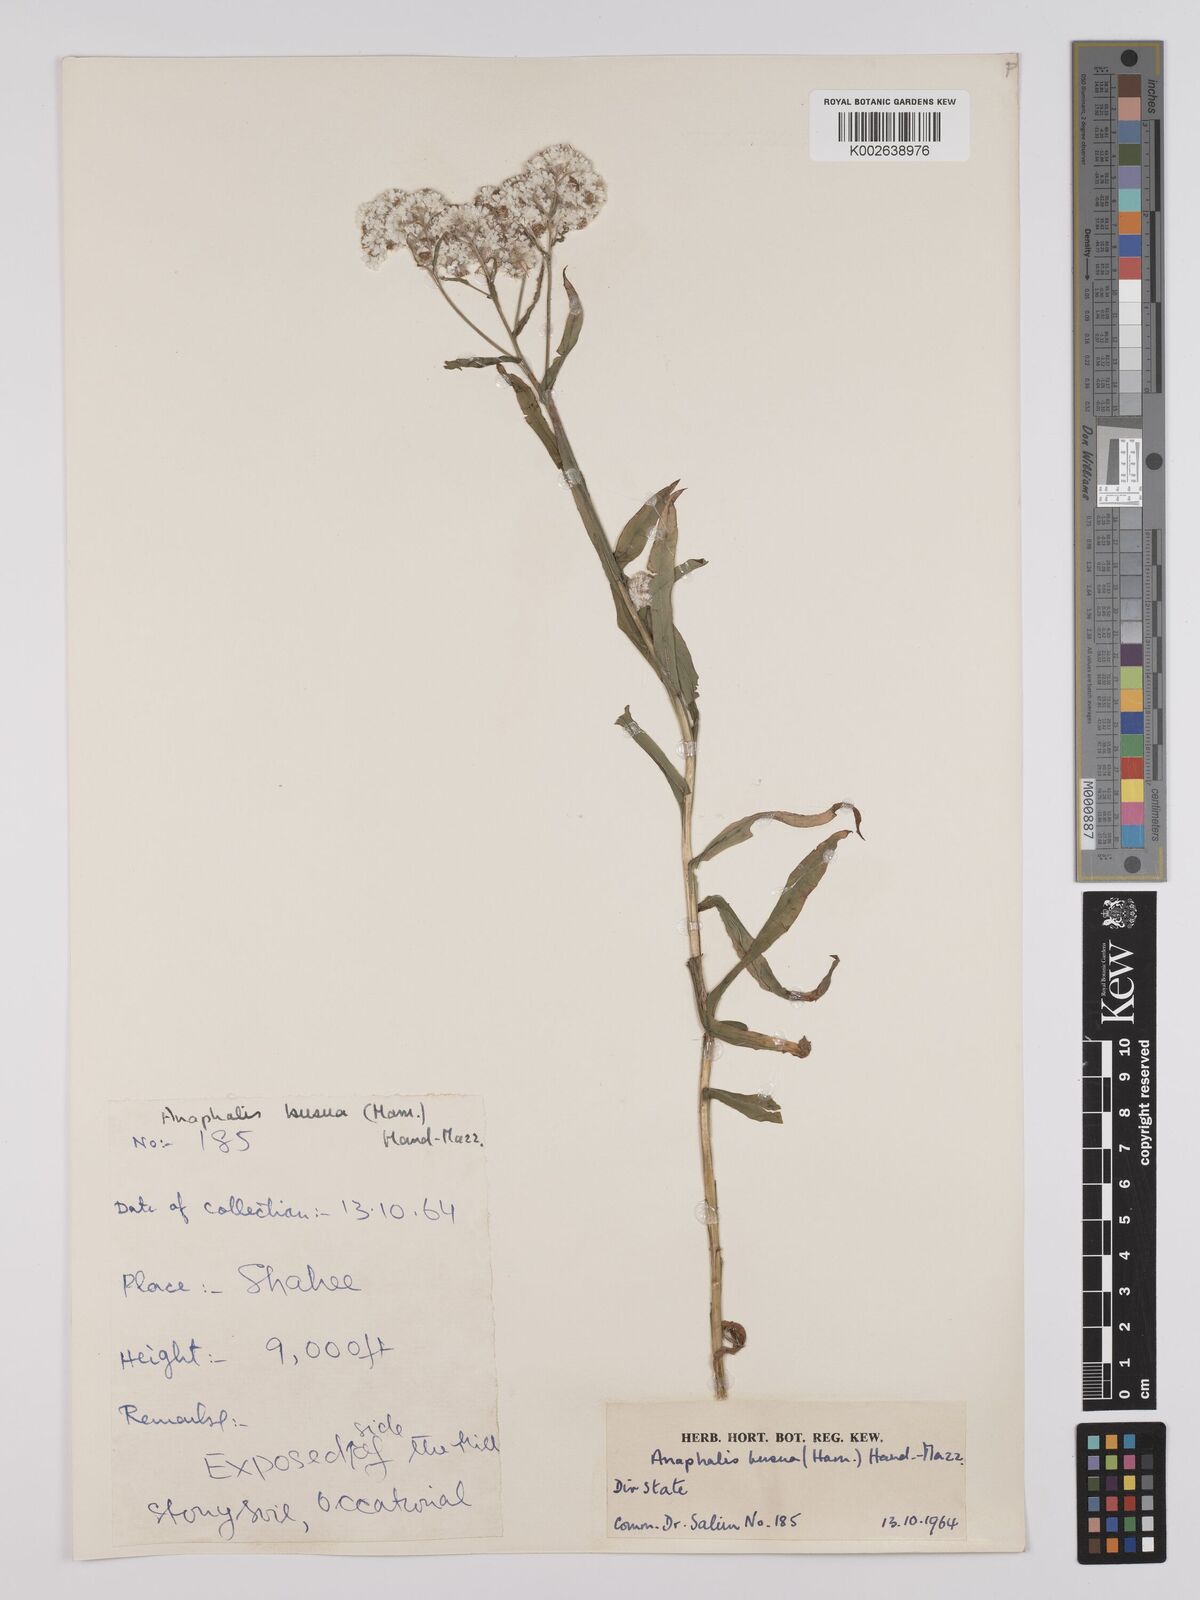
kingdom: Plantae
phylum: Tracheophyta
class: Magnoliopsida
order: Asterales
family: Asteraceae
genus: Anaphalis
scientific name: Anaphalis busua
